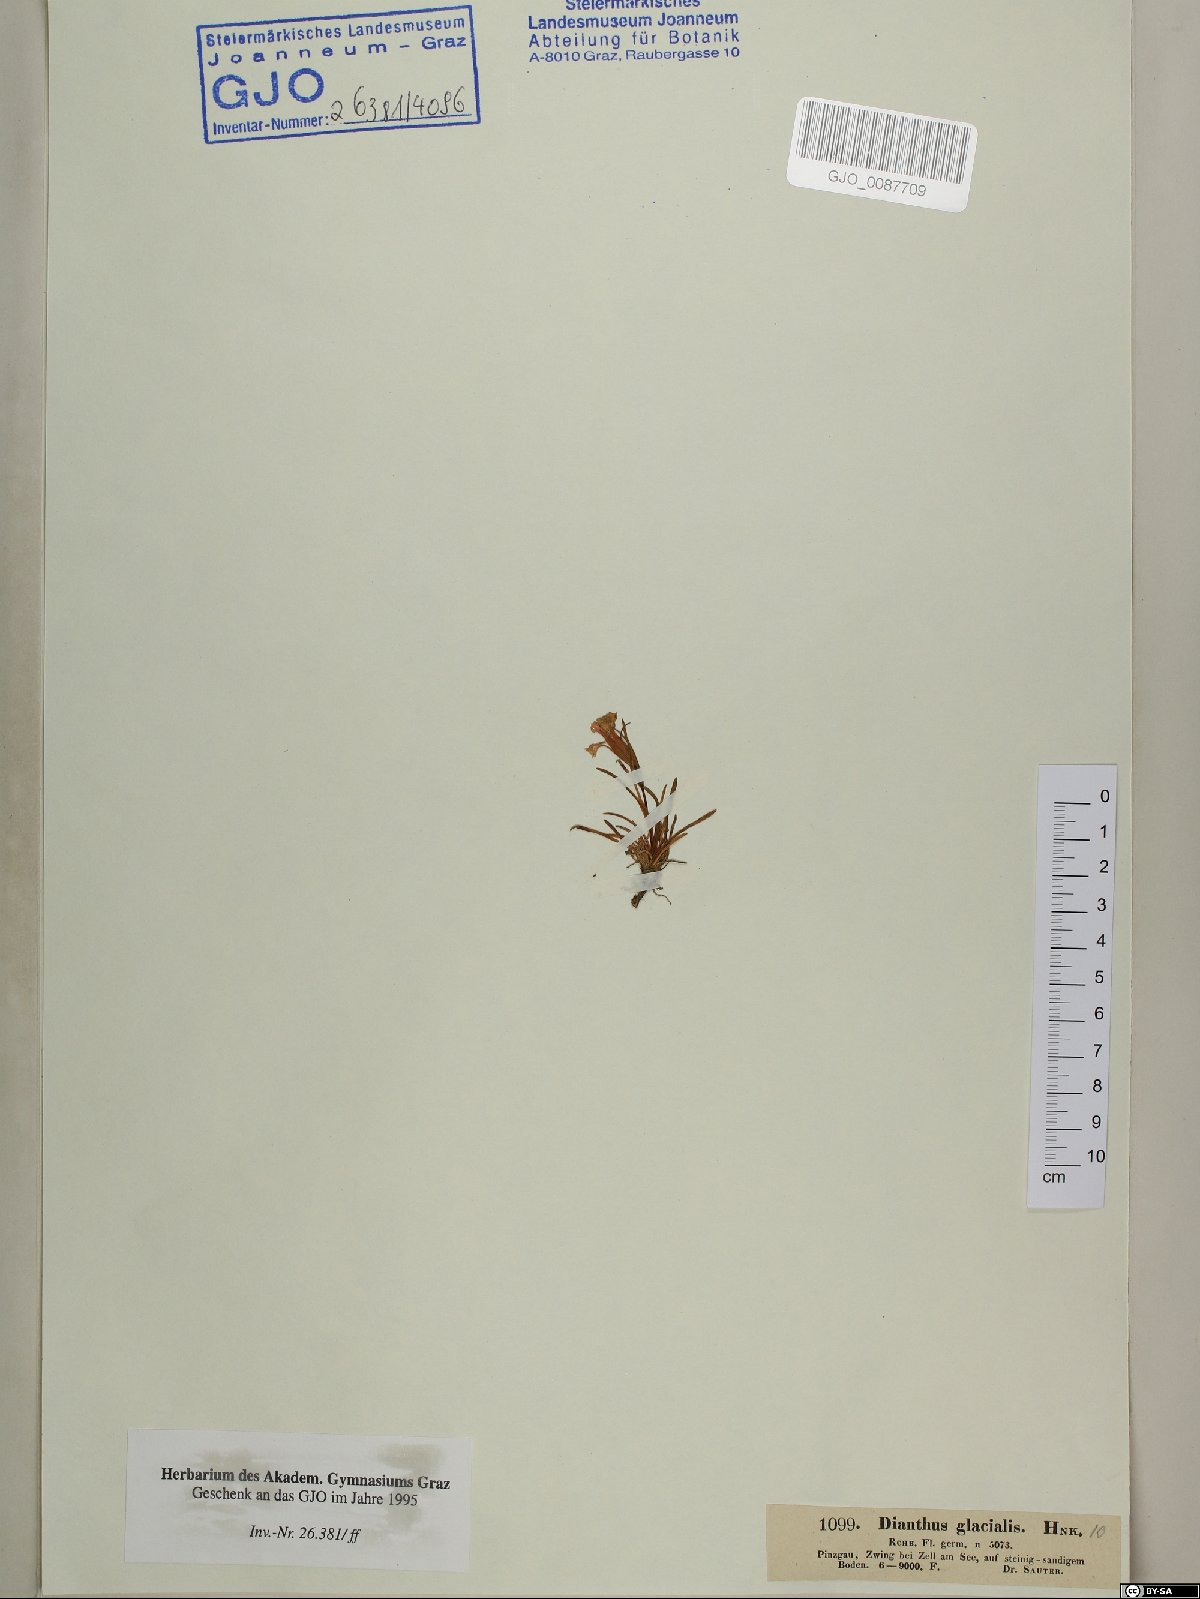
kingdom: Plantae
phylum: Tracheophyta
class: Magnoliopsida
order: Caryophyllales
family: Caryophyllaceae
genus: Dianthus
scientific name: Dianthus glacialis
